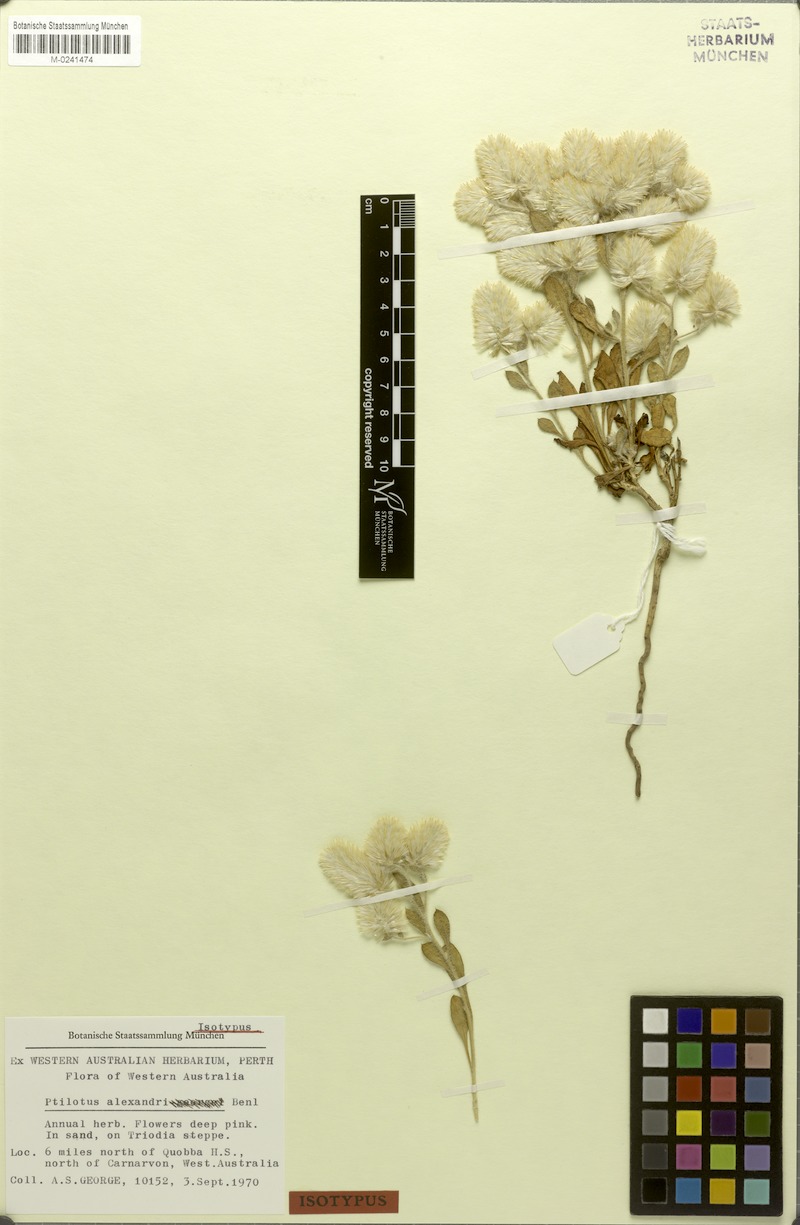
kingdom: Plantae
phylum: Tracheophyta
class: Magnoliopsida
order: Caryophyllales
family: Amaranthaceae
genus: Ptilotus
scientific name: Ptilotus alexandri
